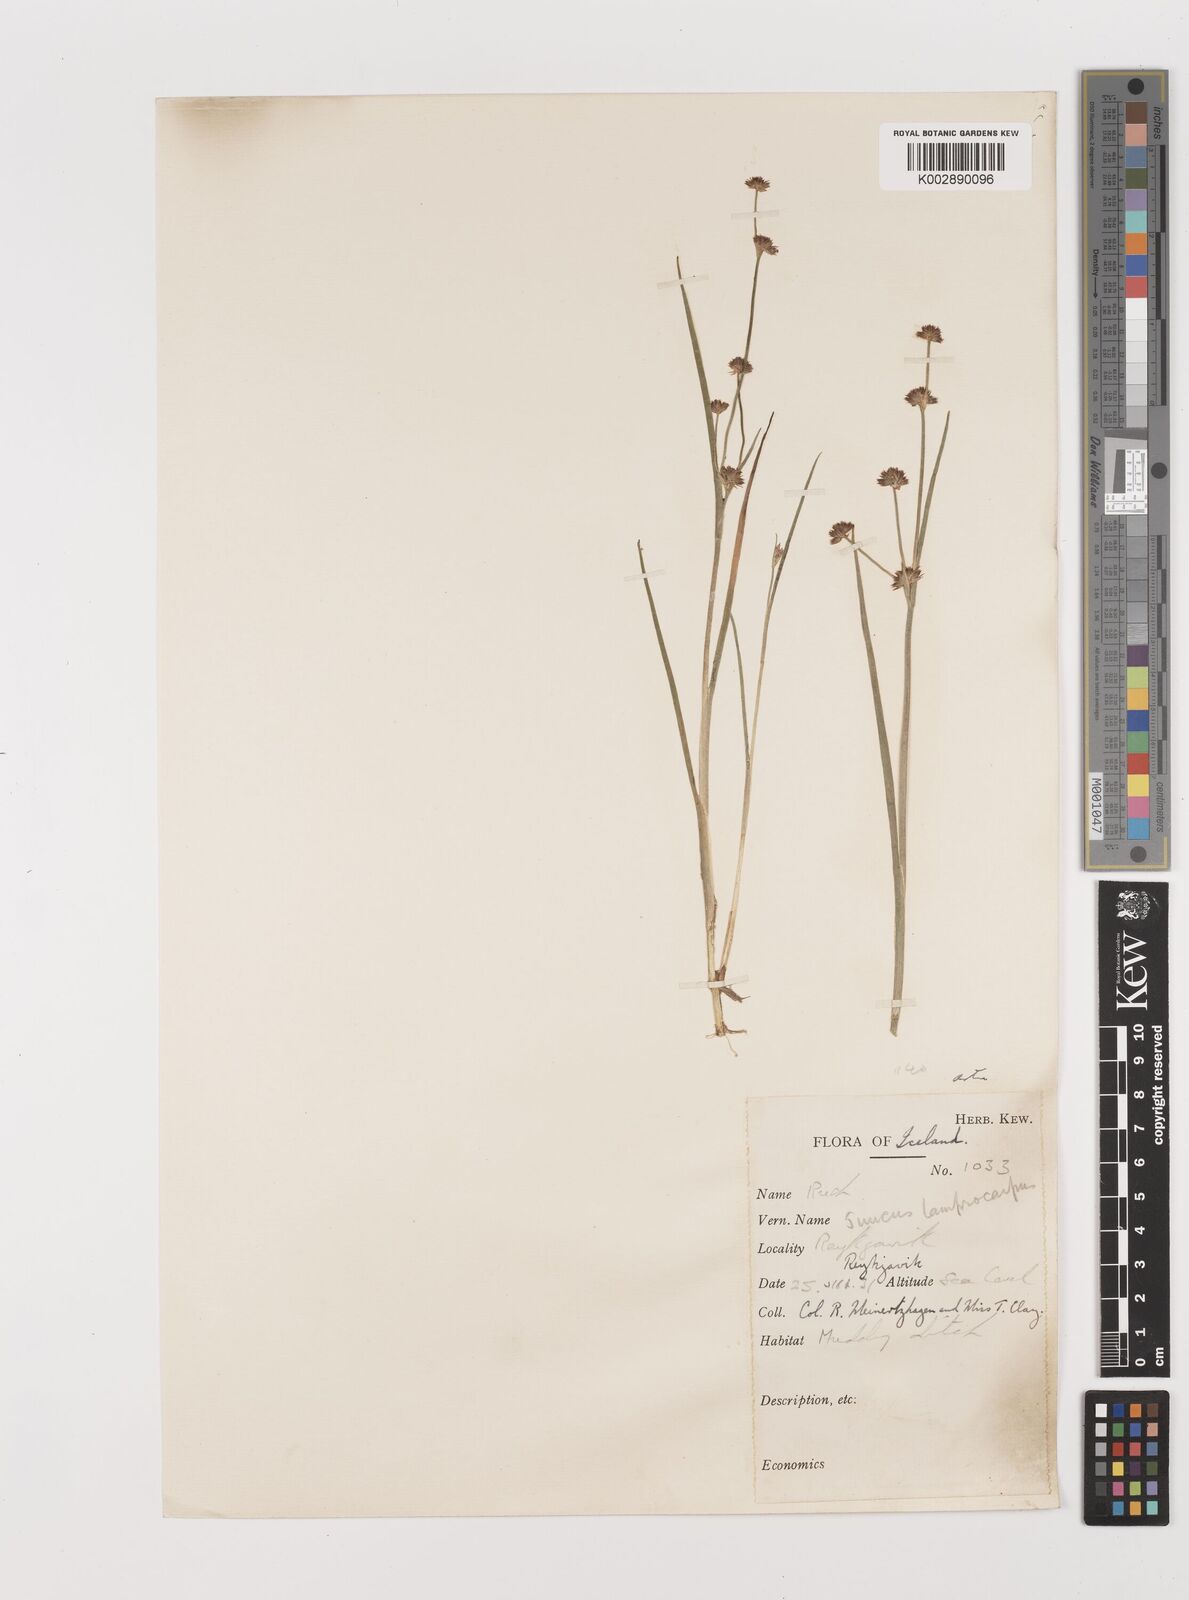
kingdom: Plantae
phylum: Tracheophyta
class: Liliopsida
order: Poales
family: Juncaceae
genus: Juncus
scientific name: Juncus articulatus
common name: Jointed rush
